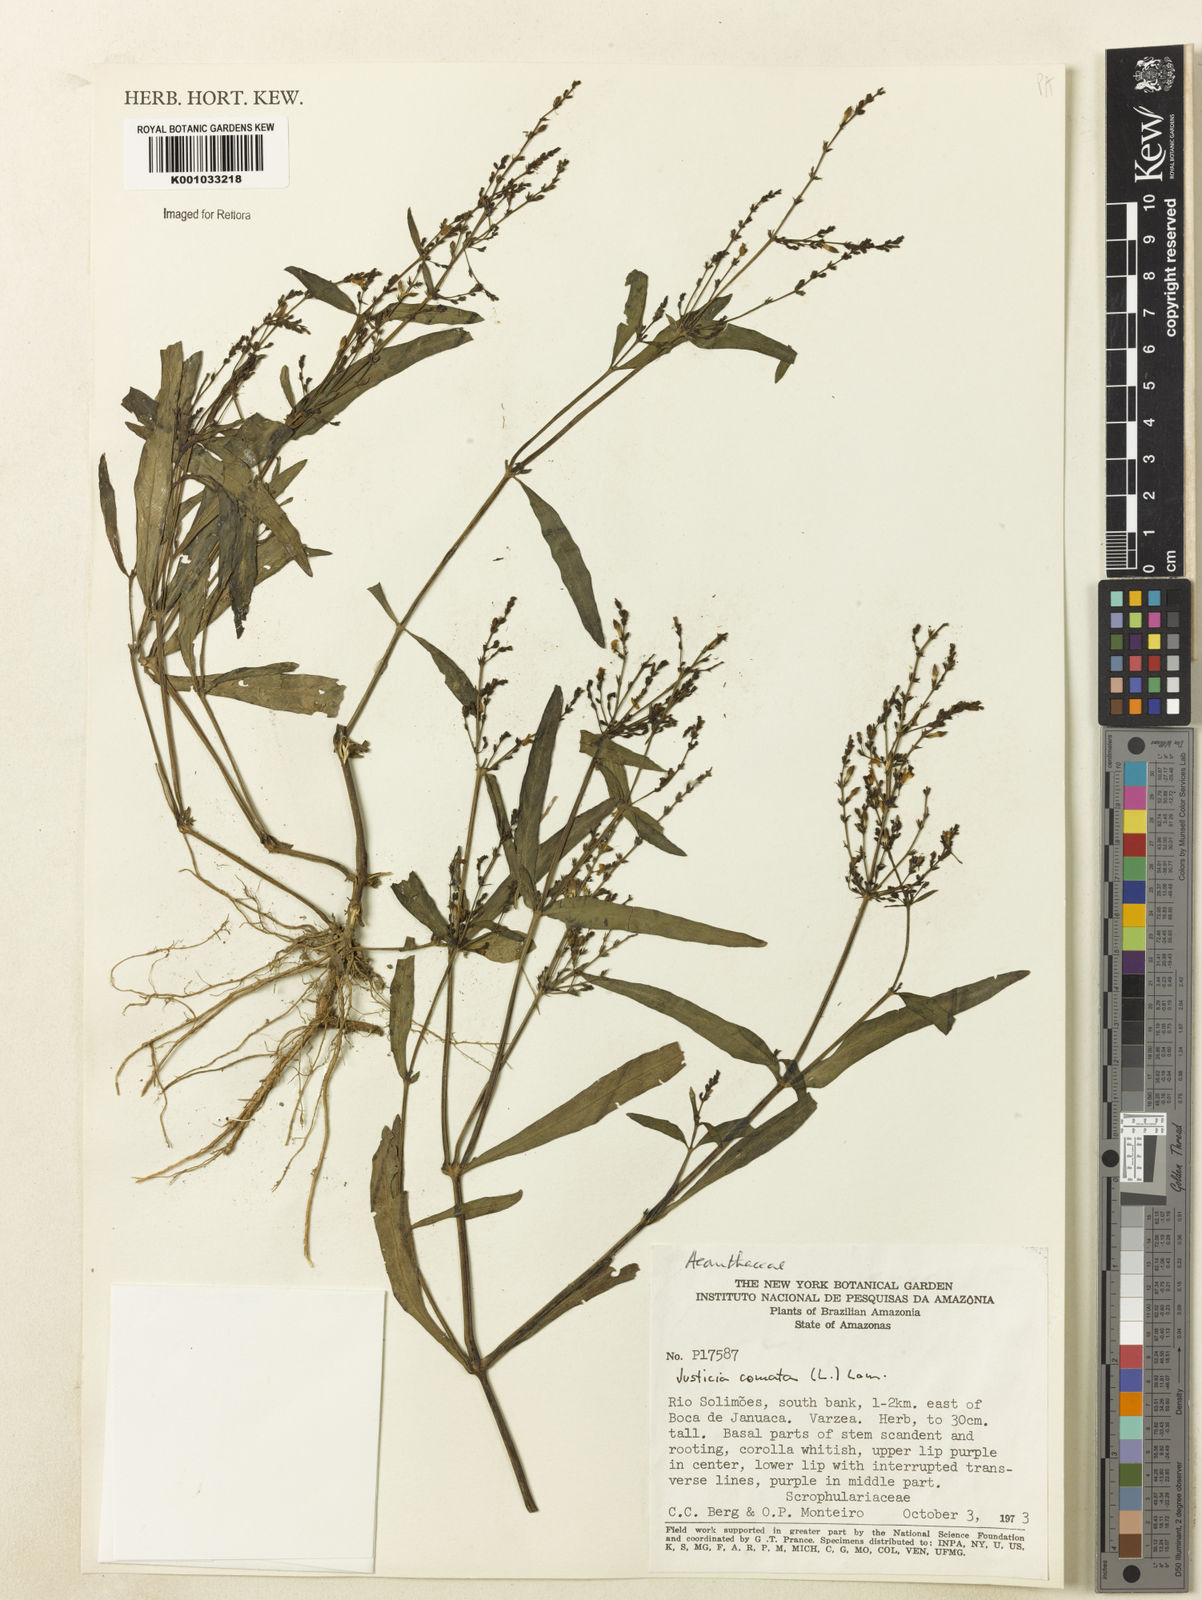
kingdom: Plantae
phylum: Tracheophyta
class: Magnoliopsida
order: Lamiales
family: Acanthaceae
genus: Dianthera
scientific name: Dianthera comata
